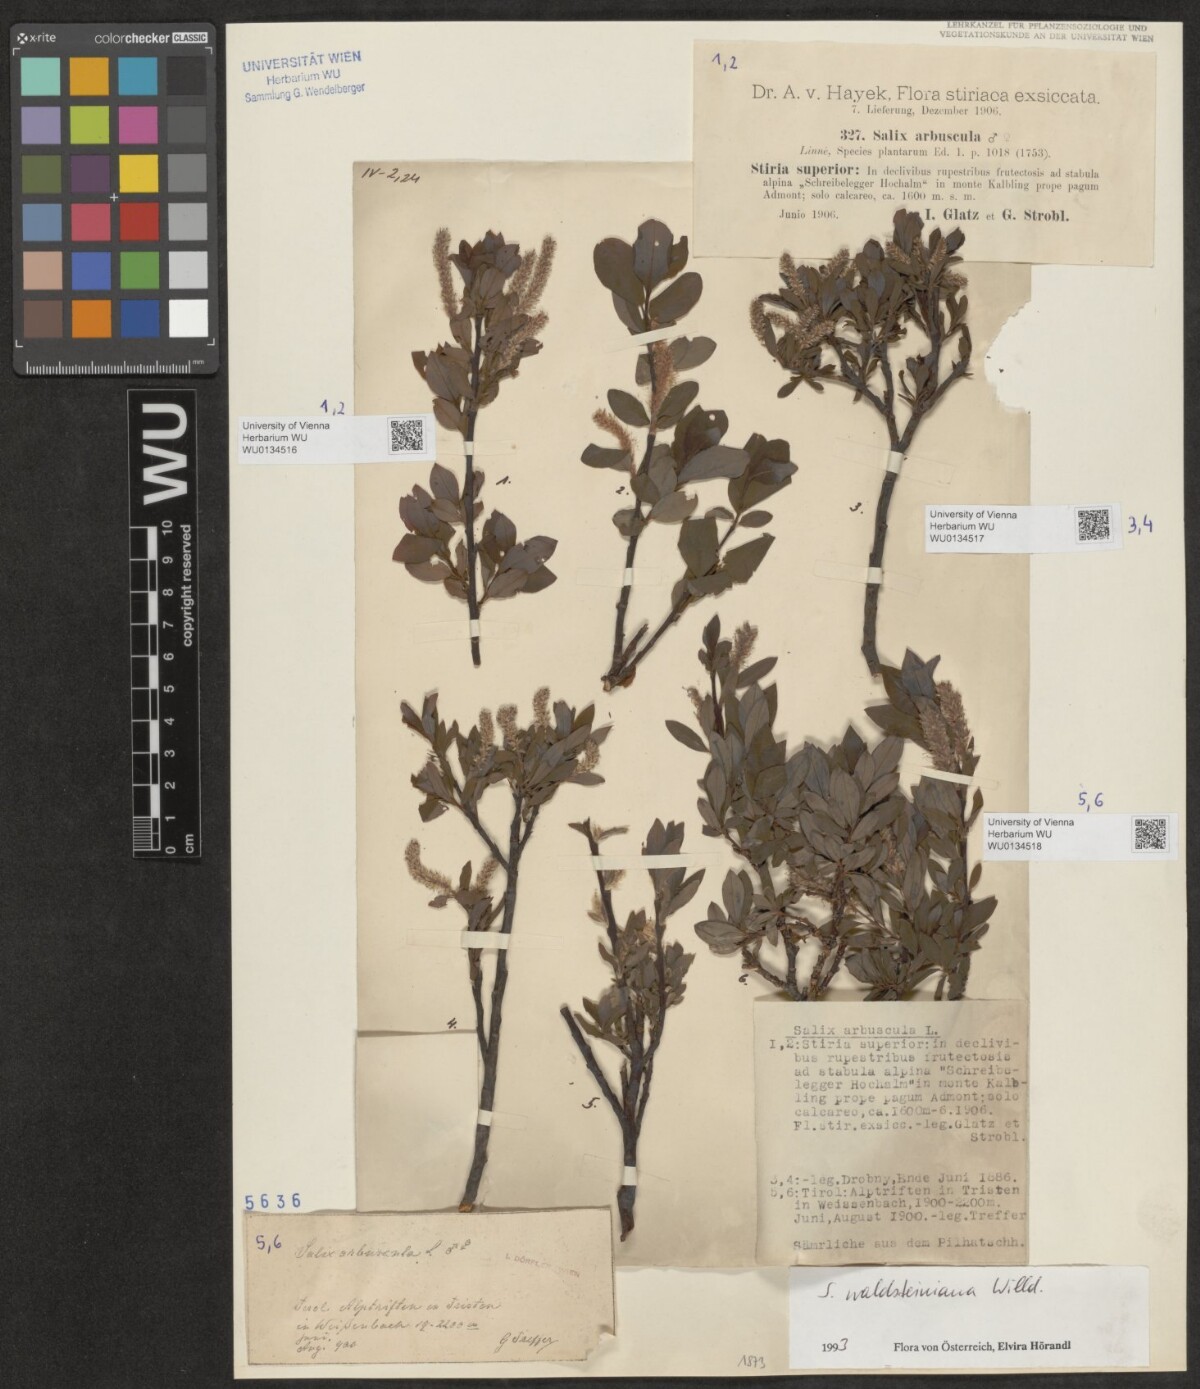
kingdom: Plantae
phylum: Tracheophyta
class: Magnoliopsida
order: Malpighiales
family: Salicaceae
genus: Salix
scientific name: Salix waldsteiniana
